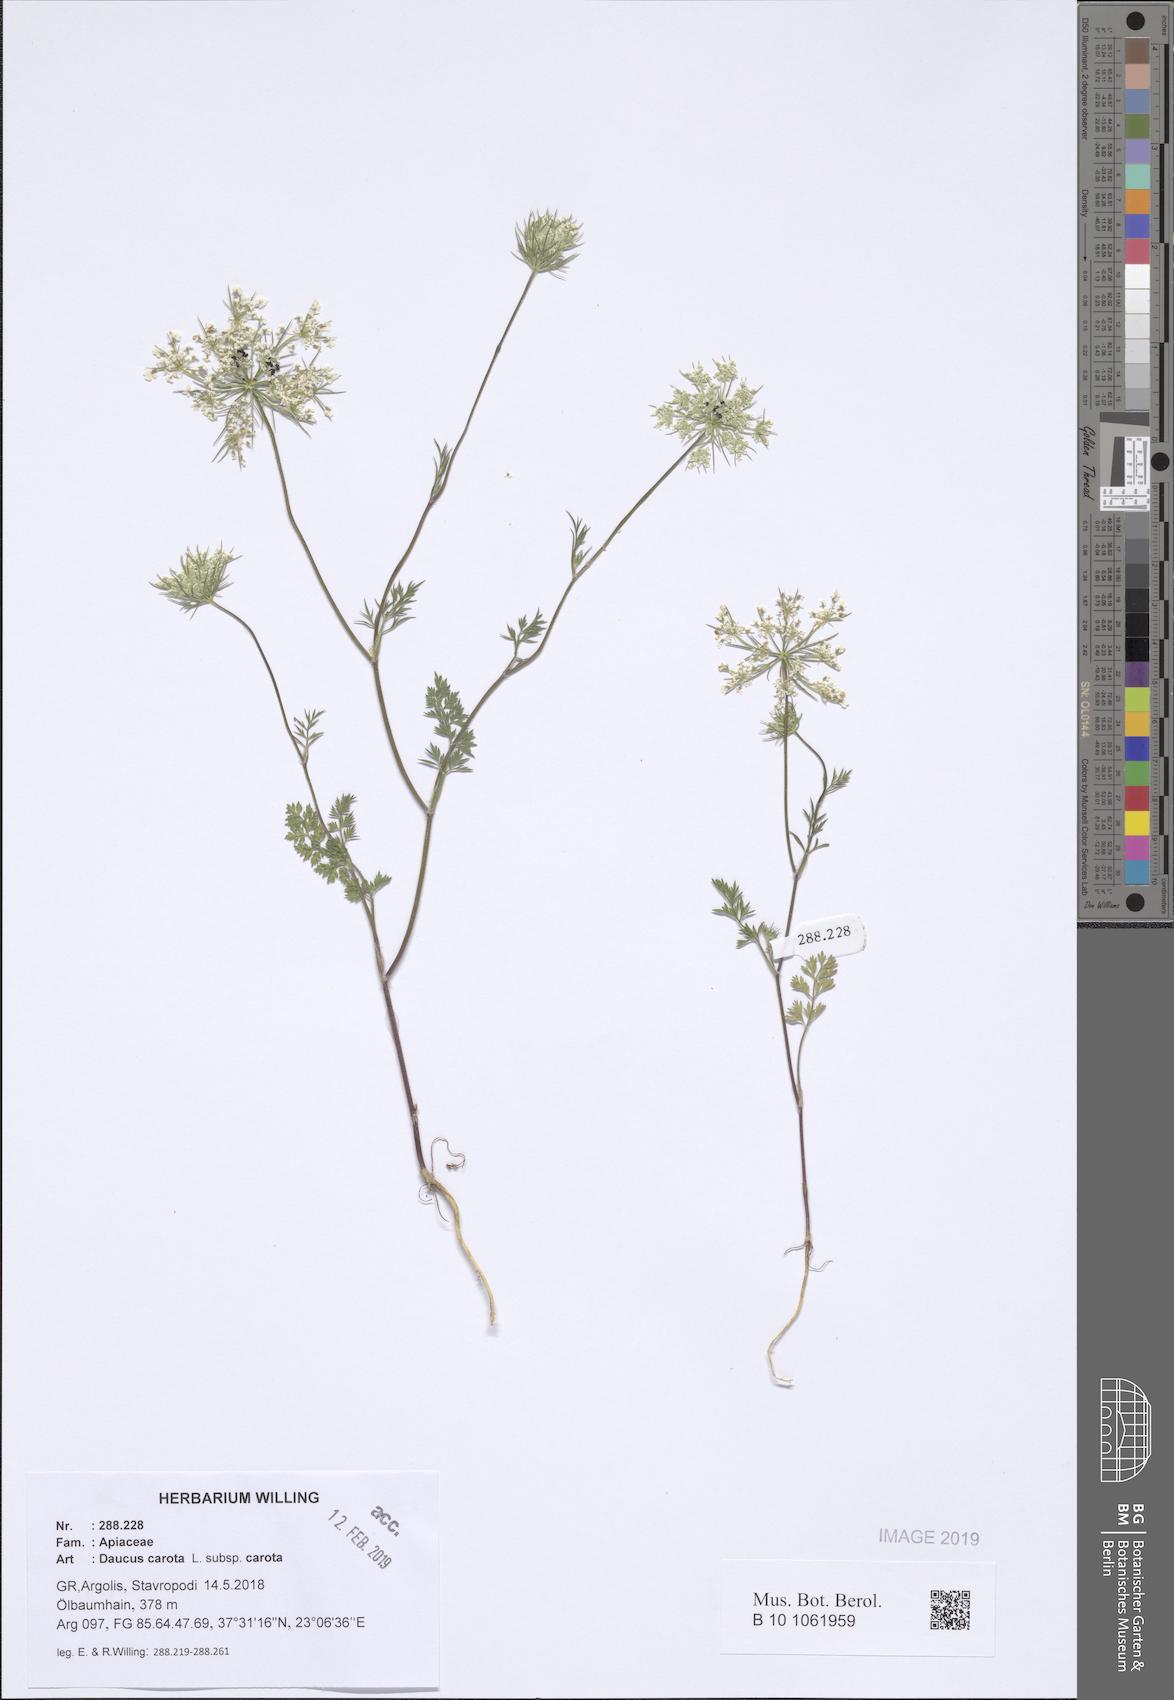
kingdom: Plantae
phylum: Tracheophyta
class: Magnoliopsida
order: Apiales
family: Apiaceae
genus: Daucus
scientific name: Daucus carota
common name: Wild carrot
